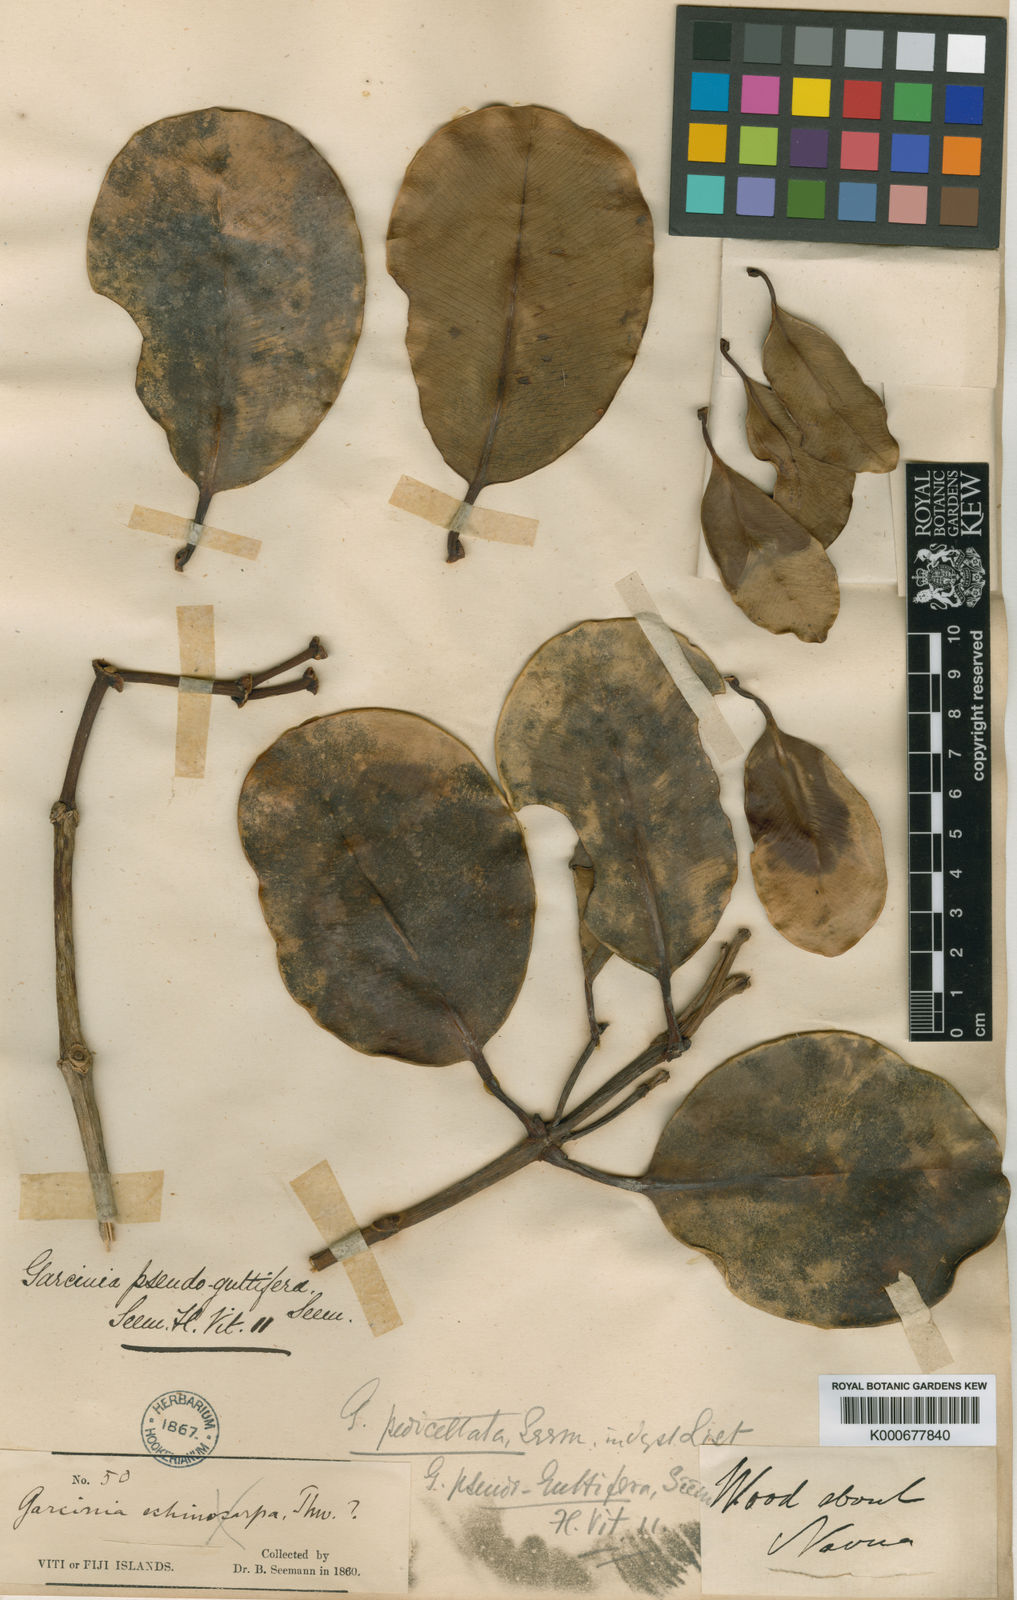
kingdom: Plantae
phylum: Tracheophyta
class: Magnoliopsida
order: Malpighiales
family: Clusiaceae
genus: Garcinia
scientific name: Garcinia pseudoguttifera
